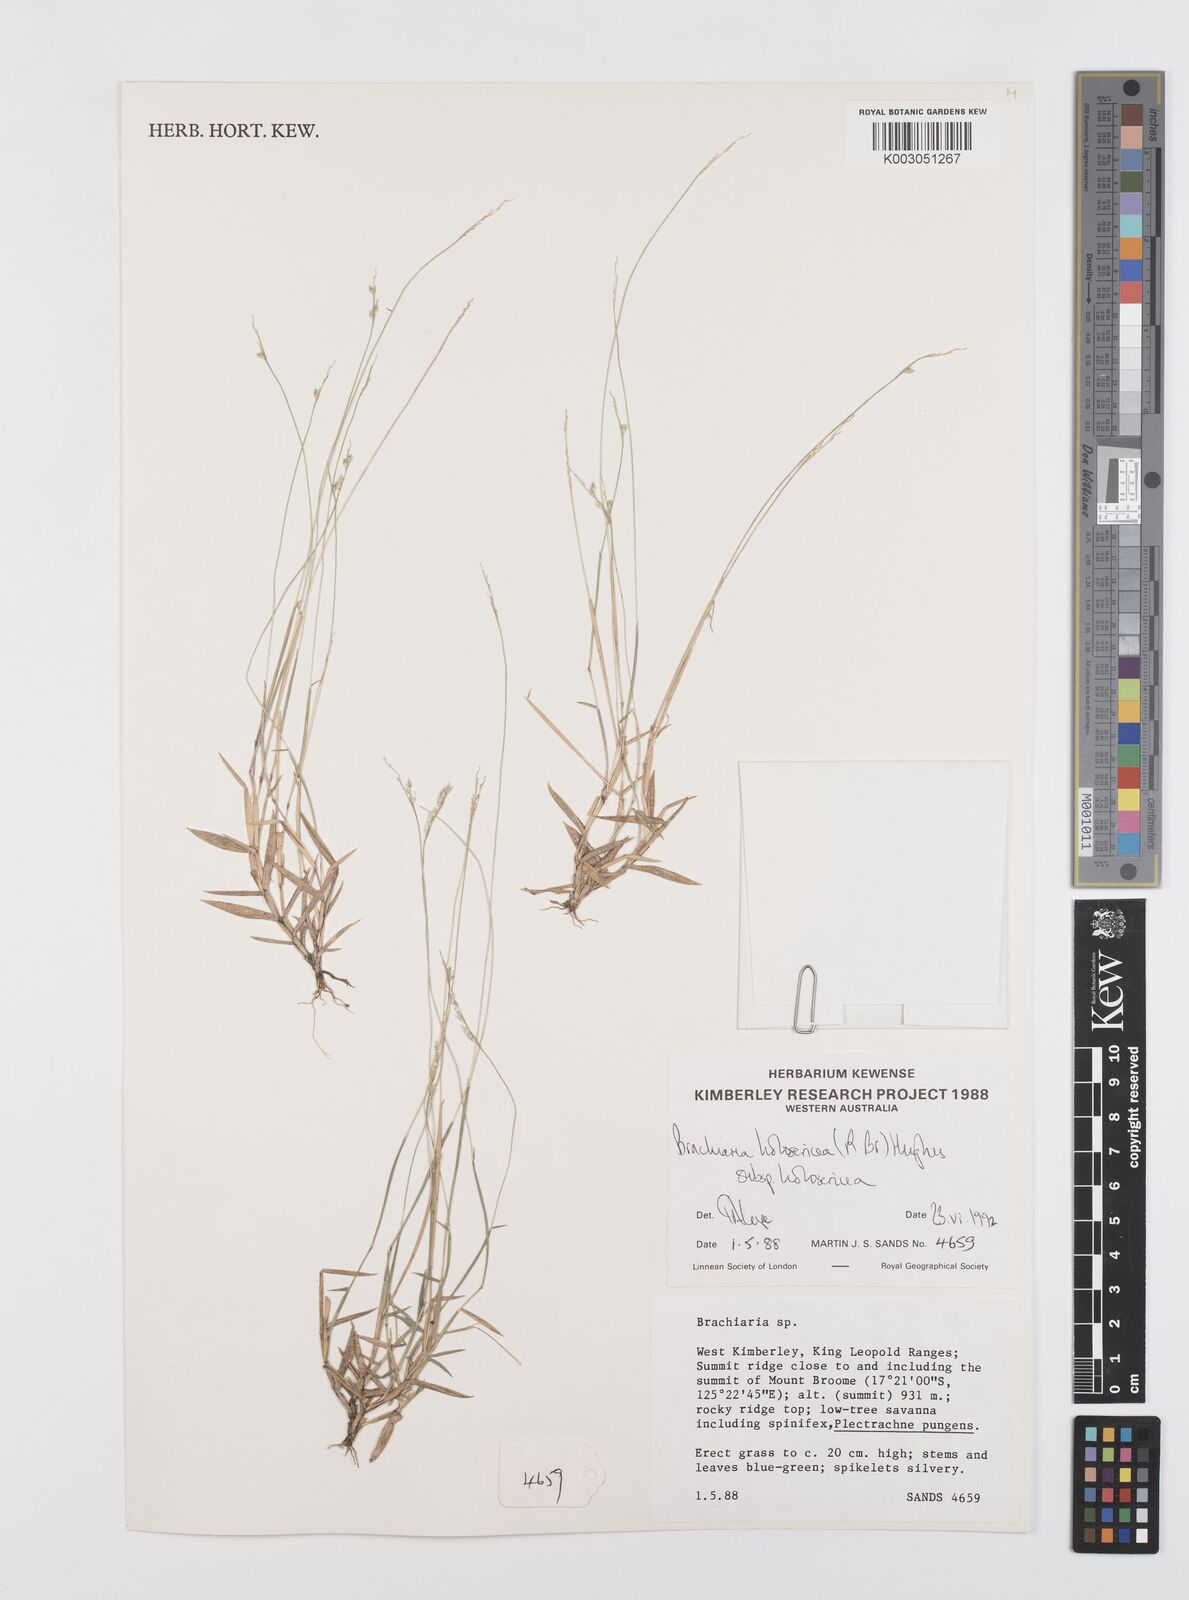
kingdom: Plantae
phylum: Tracheophyta
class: Liliopsida
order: Poales
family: Poaceae
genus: Urochloa
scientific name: Urochloa holosericea
